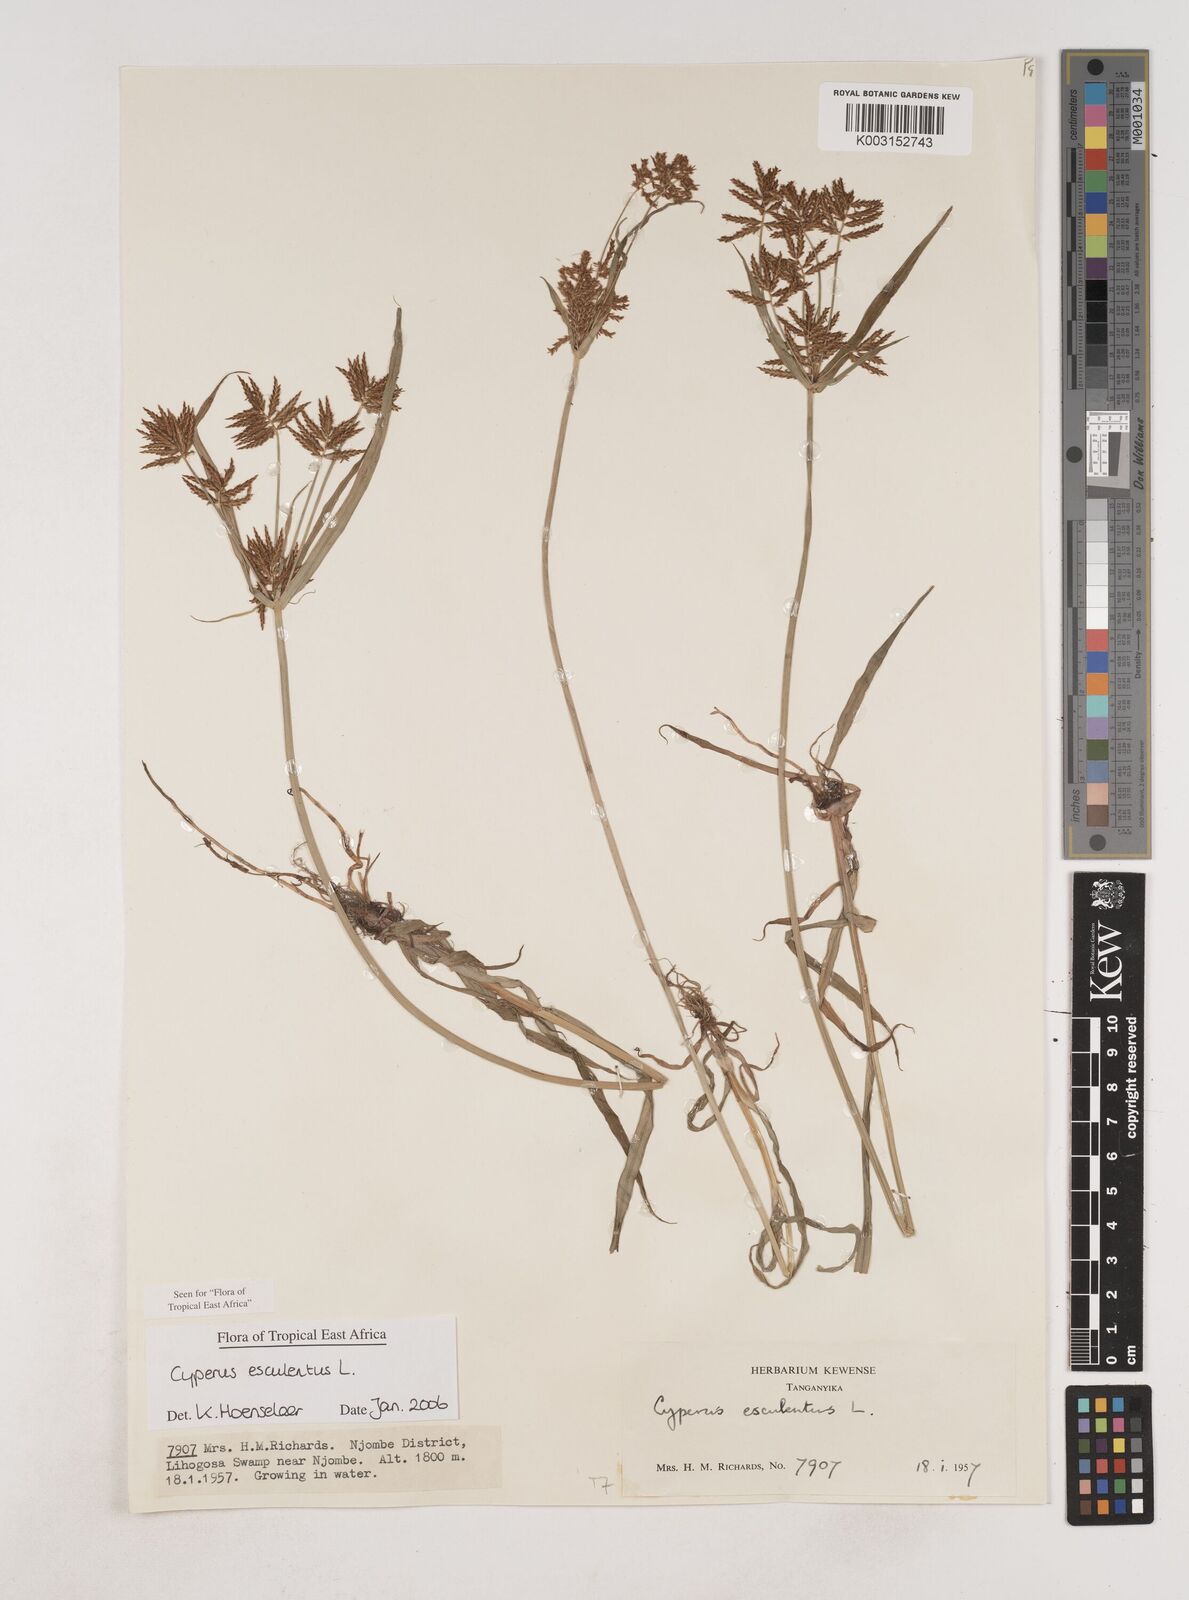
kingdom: Plantae
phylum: Tracheophyta
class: Liliopsida
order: Poales
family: Cyperaceae
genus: Cyperus
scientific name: Cyperus esculentus
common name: Yellow nutsedge
